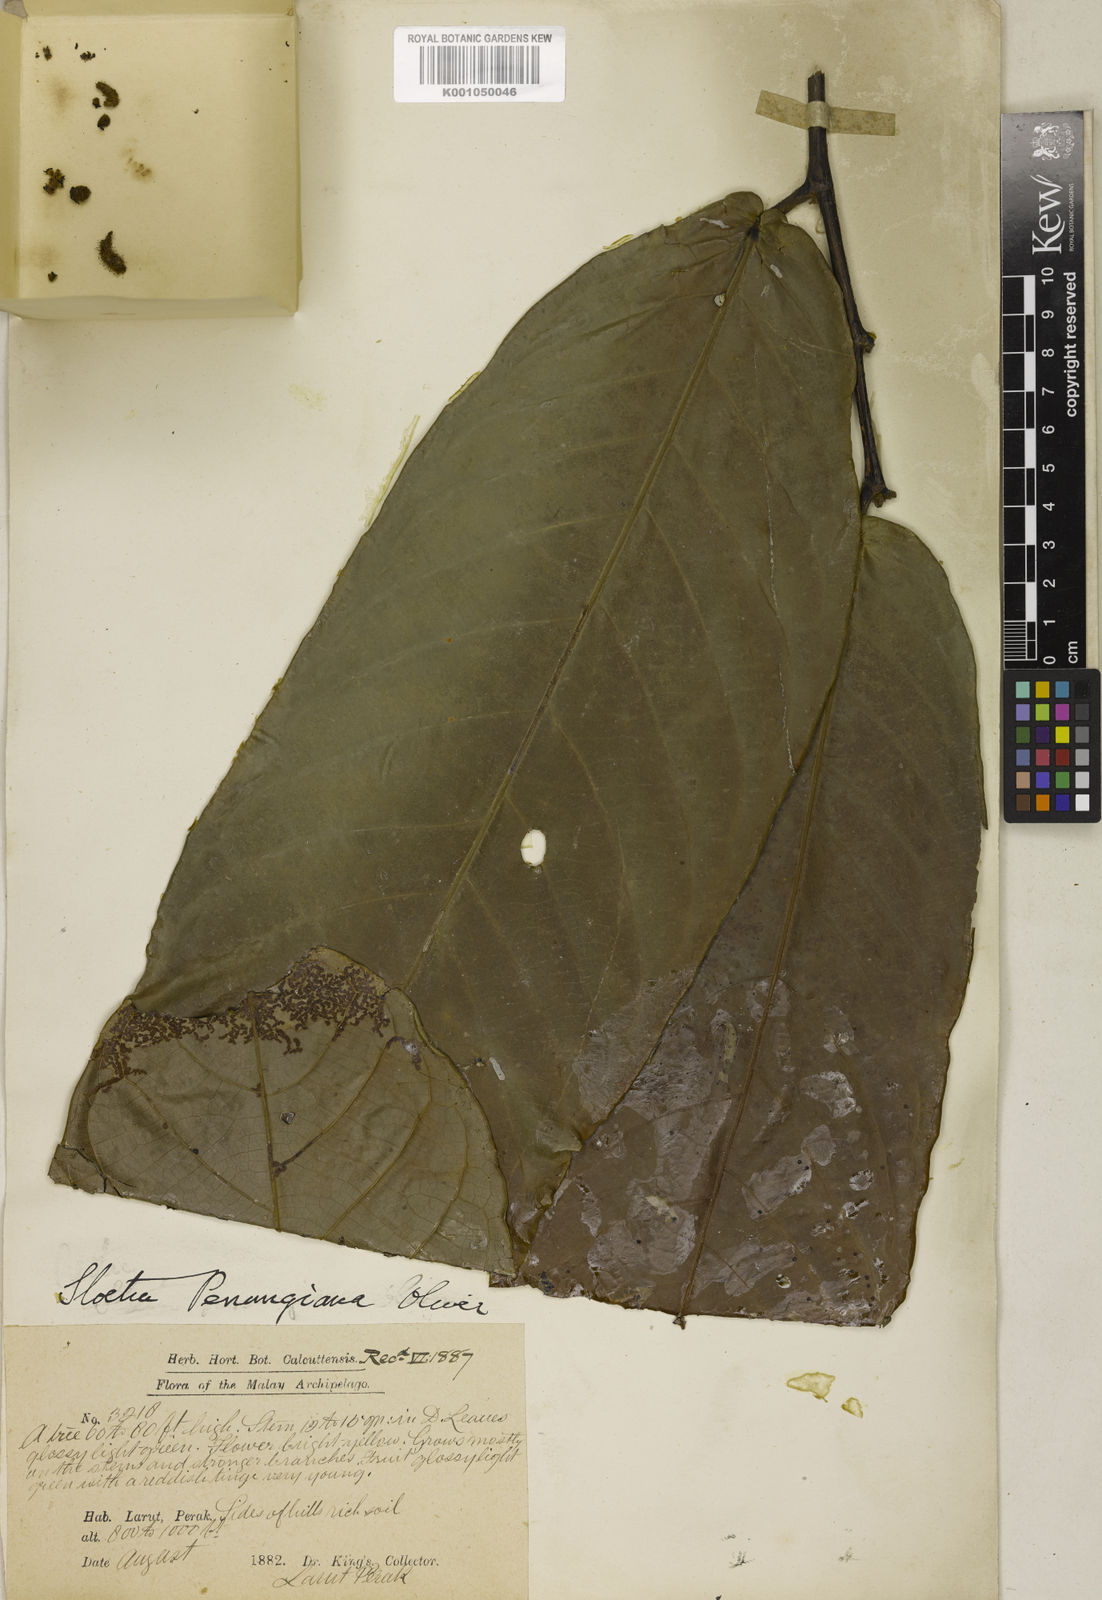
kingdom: Plantae
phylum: Tracheophyta
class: Magnoliopsida
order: Rosales
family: Moraceae
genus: Sloetia
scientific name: Sloetia elongata
